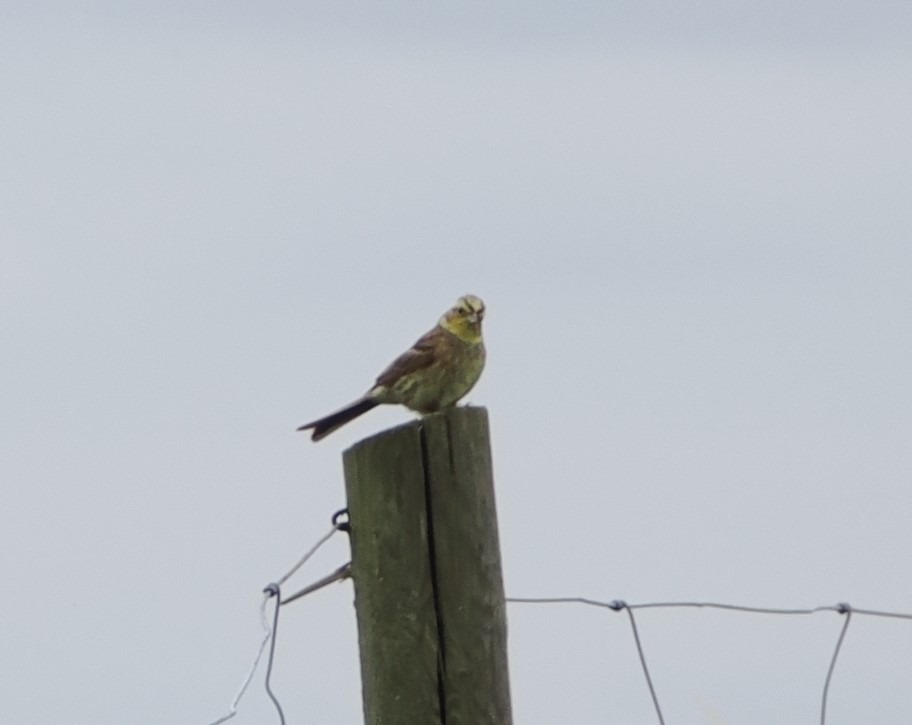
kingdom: Animalia
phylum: Chordata
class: Aves
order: Passeriformes
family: Emberizidae
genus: Emberiza
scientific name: Emberiza citrinella
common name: Gulspurv
